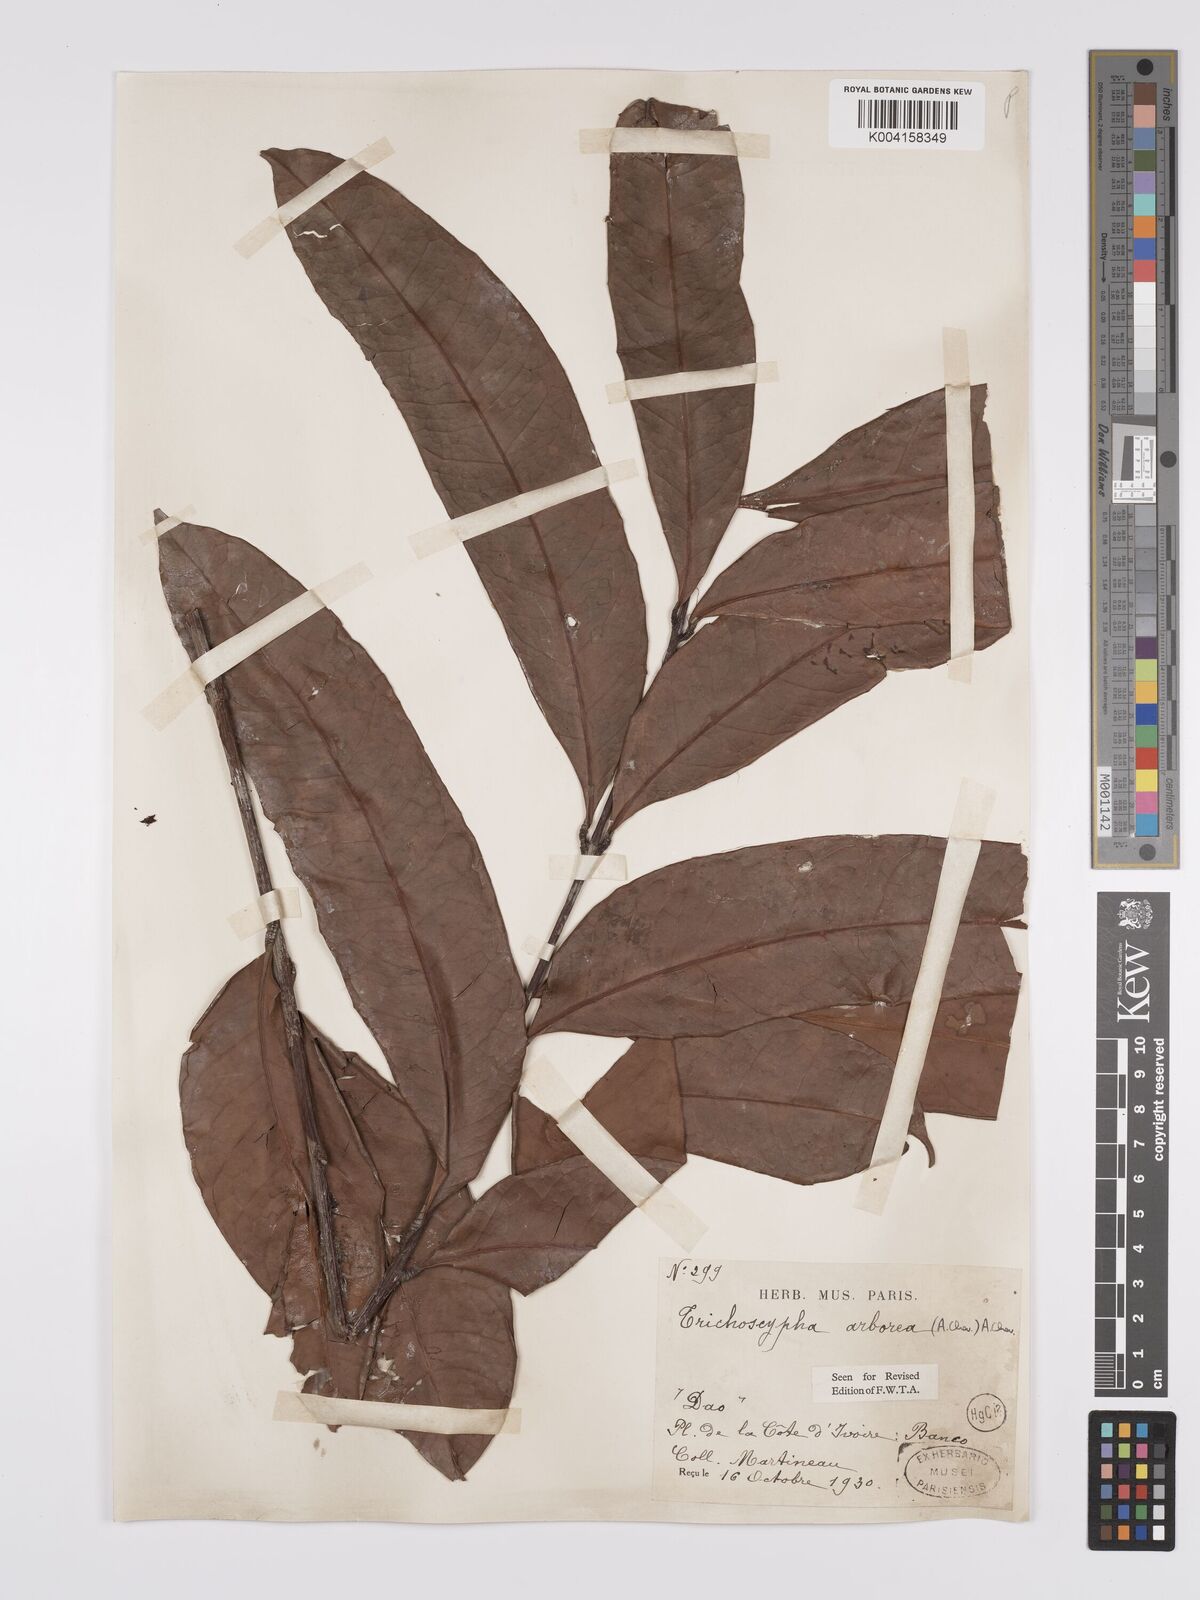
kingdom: Plantae
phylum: Tracheophyta
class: Magnoliopsida
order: Sapindales
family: Anacardiaceae
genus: Trichoscypha
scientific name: Trichoscypha arborea
